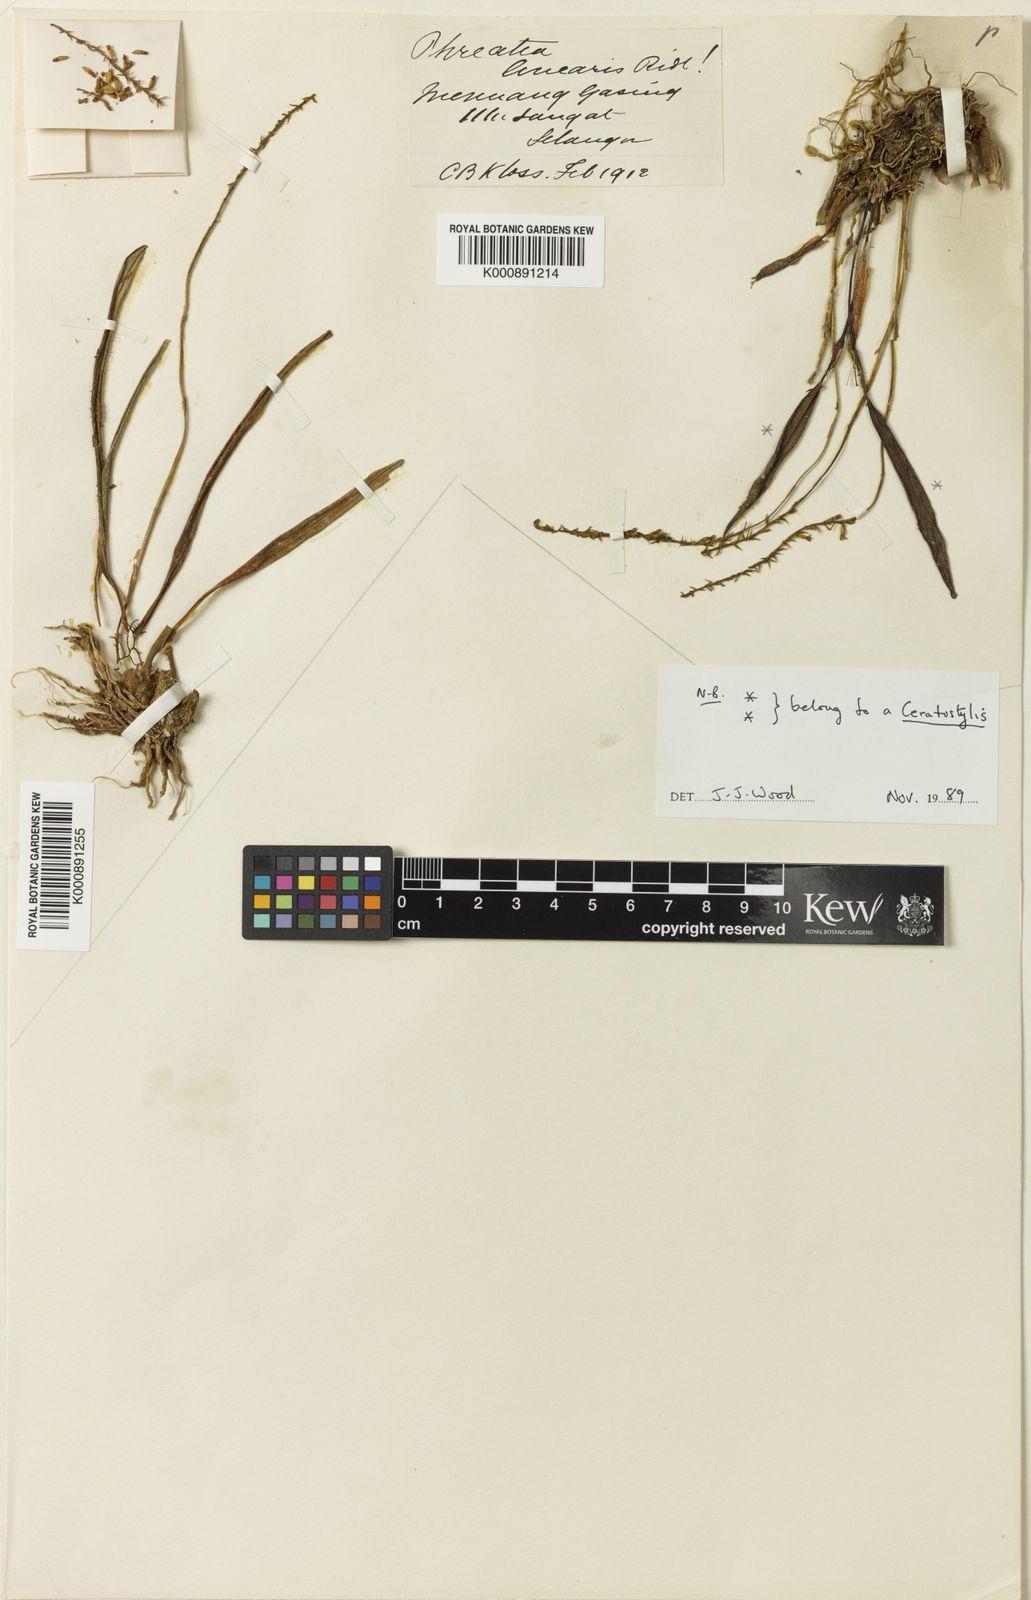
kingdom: Plantae
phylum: Tracheophyta
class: Liliopsida
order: Asparagales
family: Orchidaceae
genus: Phreatia
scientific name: Phreatia linearis
